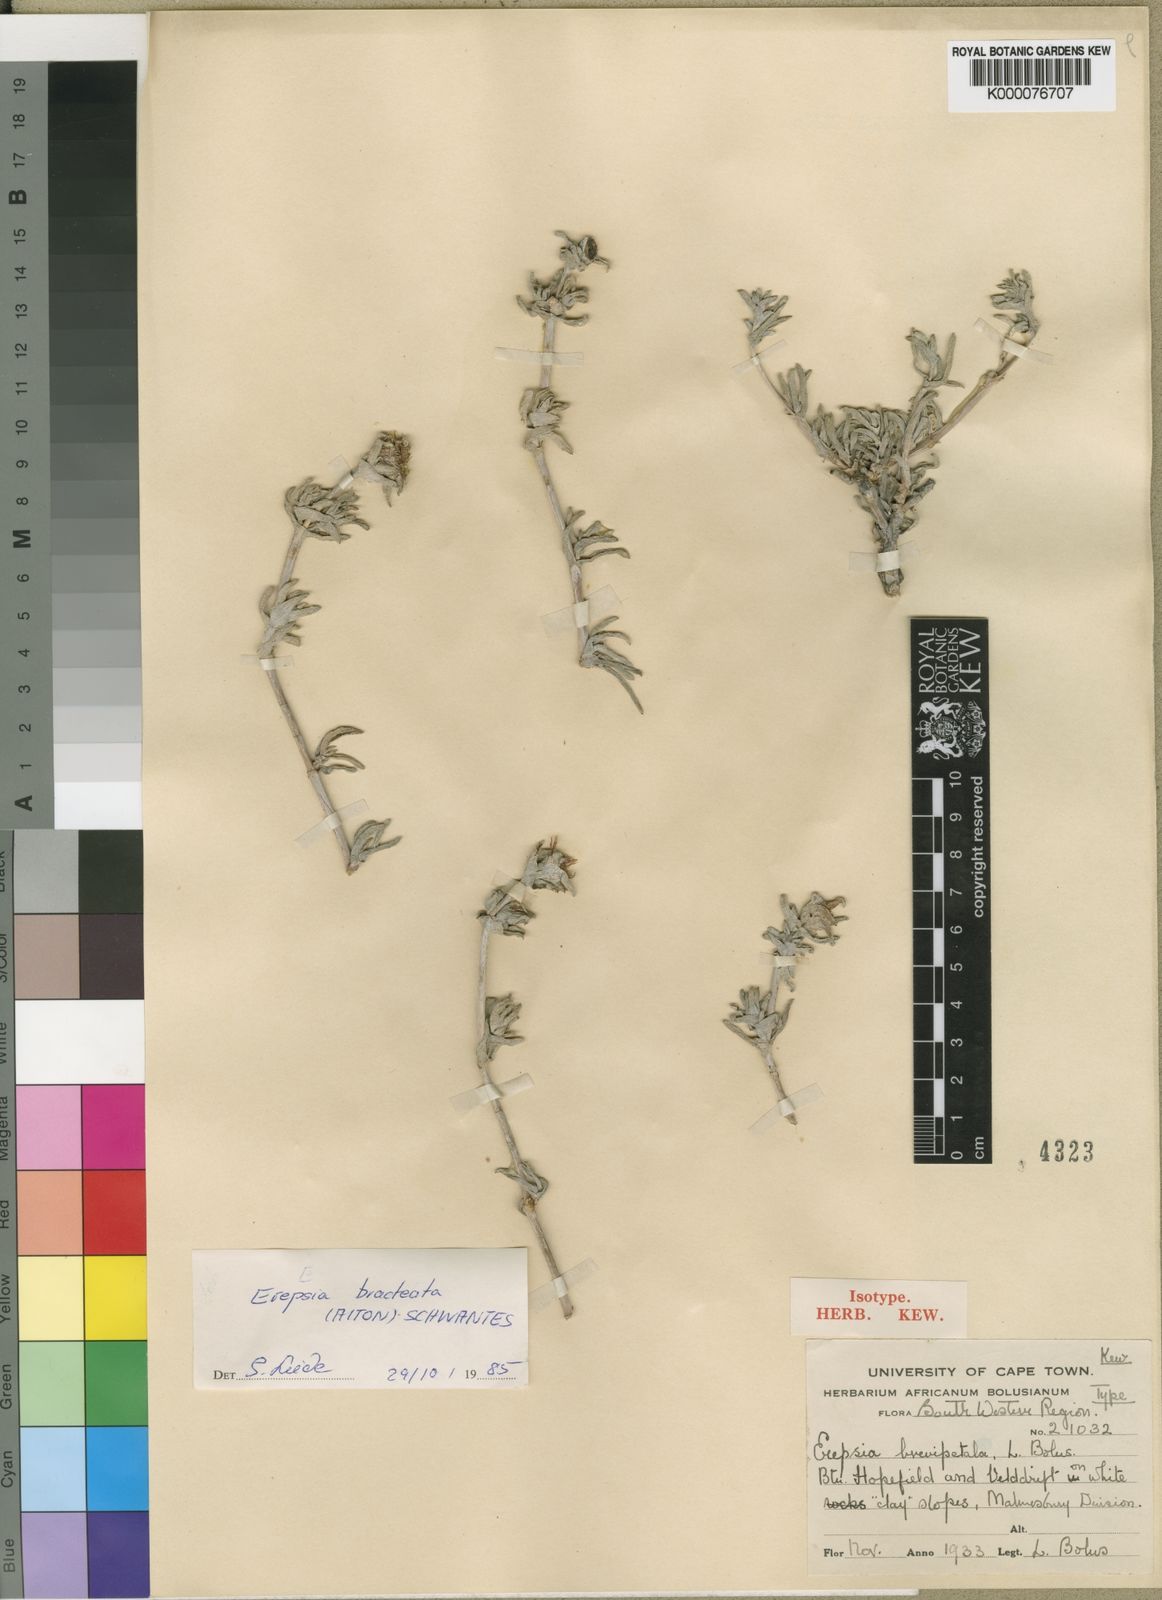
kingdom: Plantae
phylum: Tracheophyta
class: Magnoliopsida
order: Caryophyllales
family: Aizoaceae
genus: Erepsia
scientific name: Erepsia brevipetala
